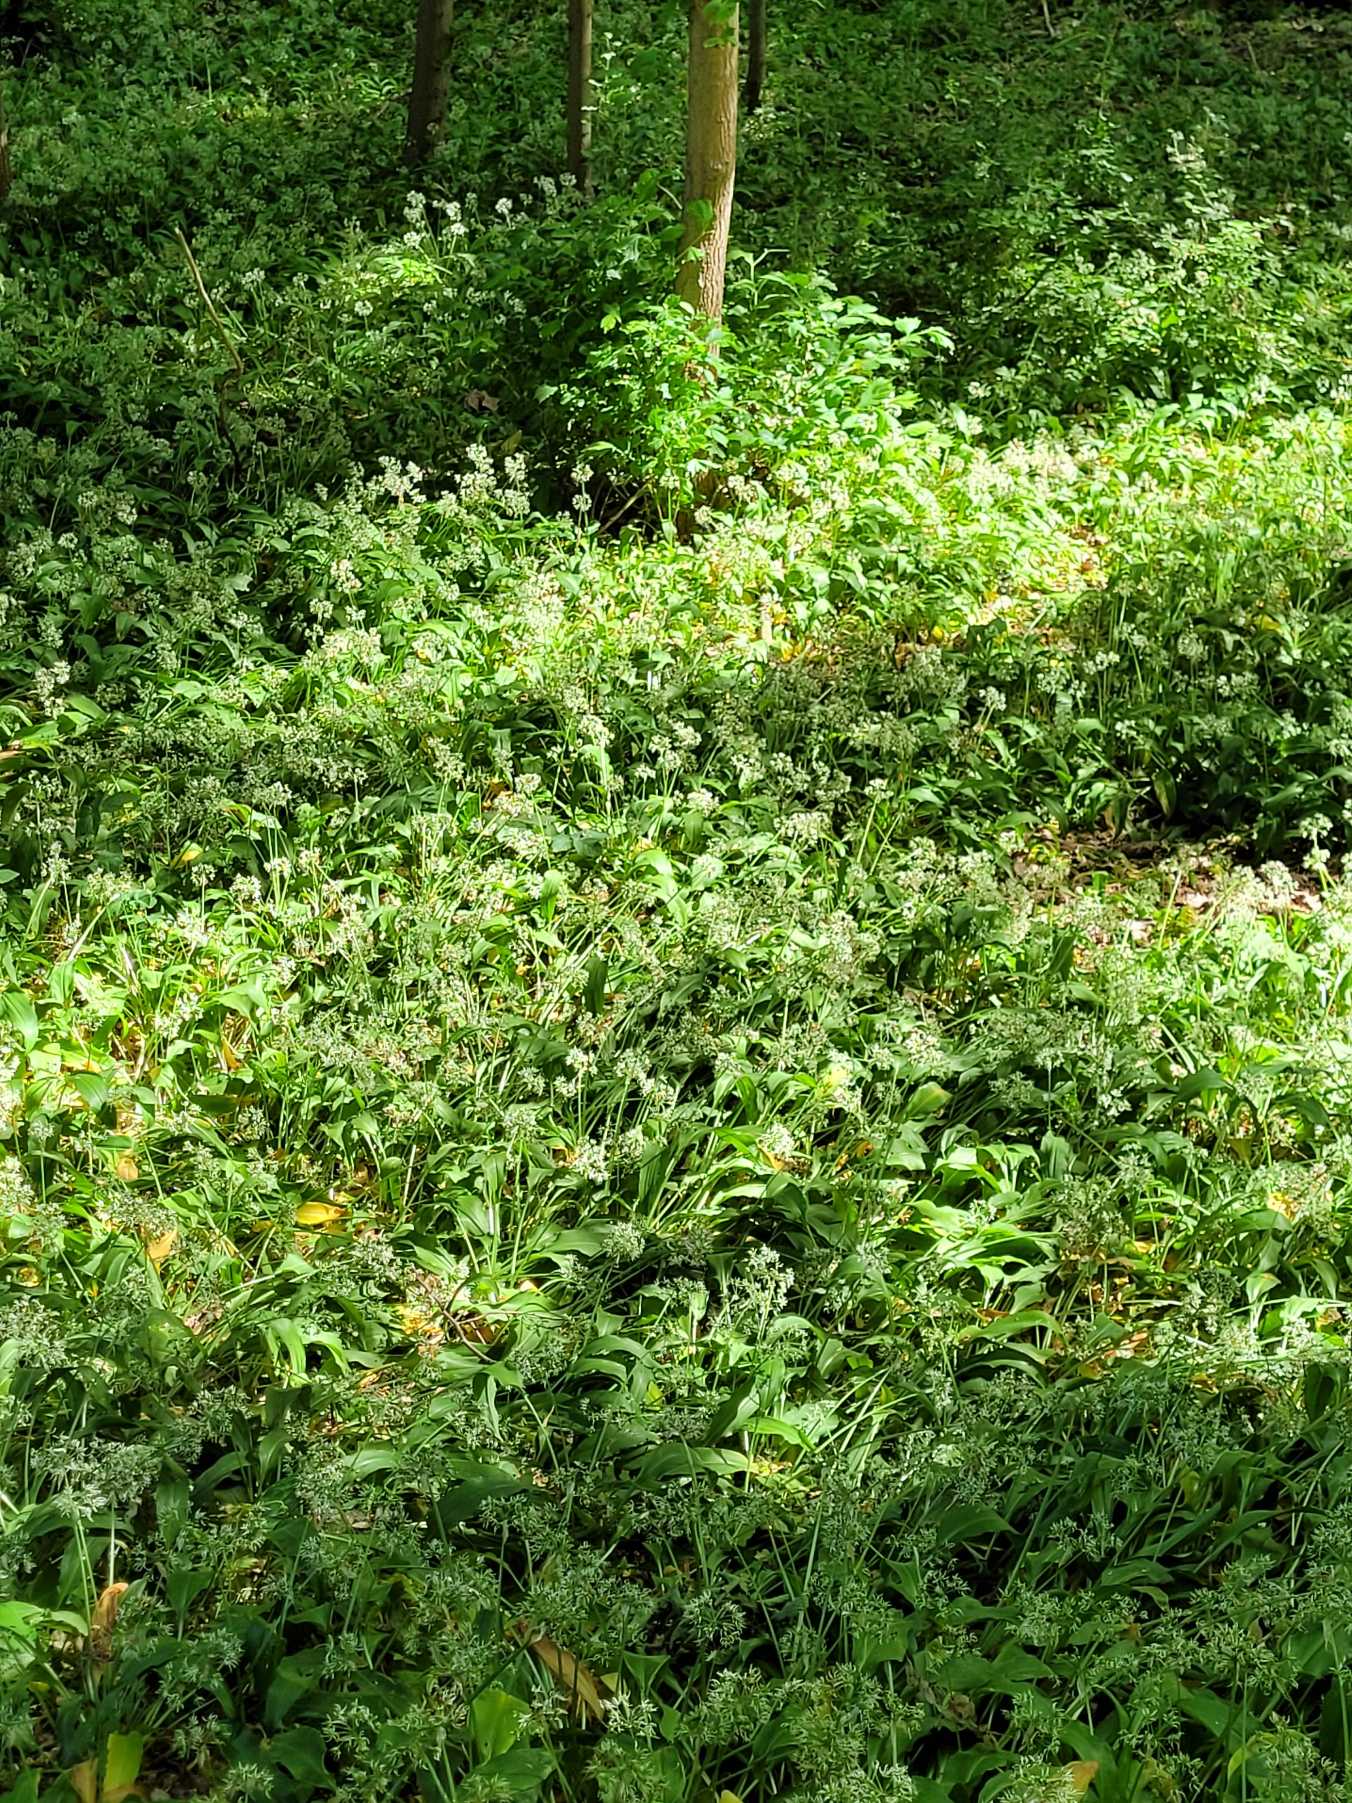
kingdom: Plantae
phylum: Tracheophyta
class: Liliopsida
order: Asparagales
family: Amaryllidaceae
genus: Allium
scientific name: Allium ursinum
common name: Rams-løg
